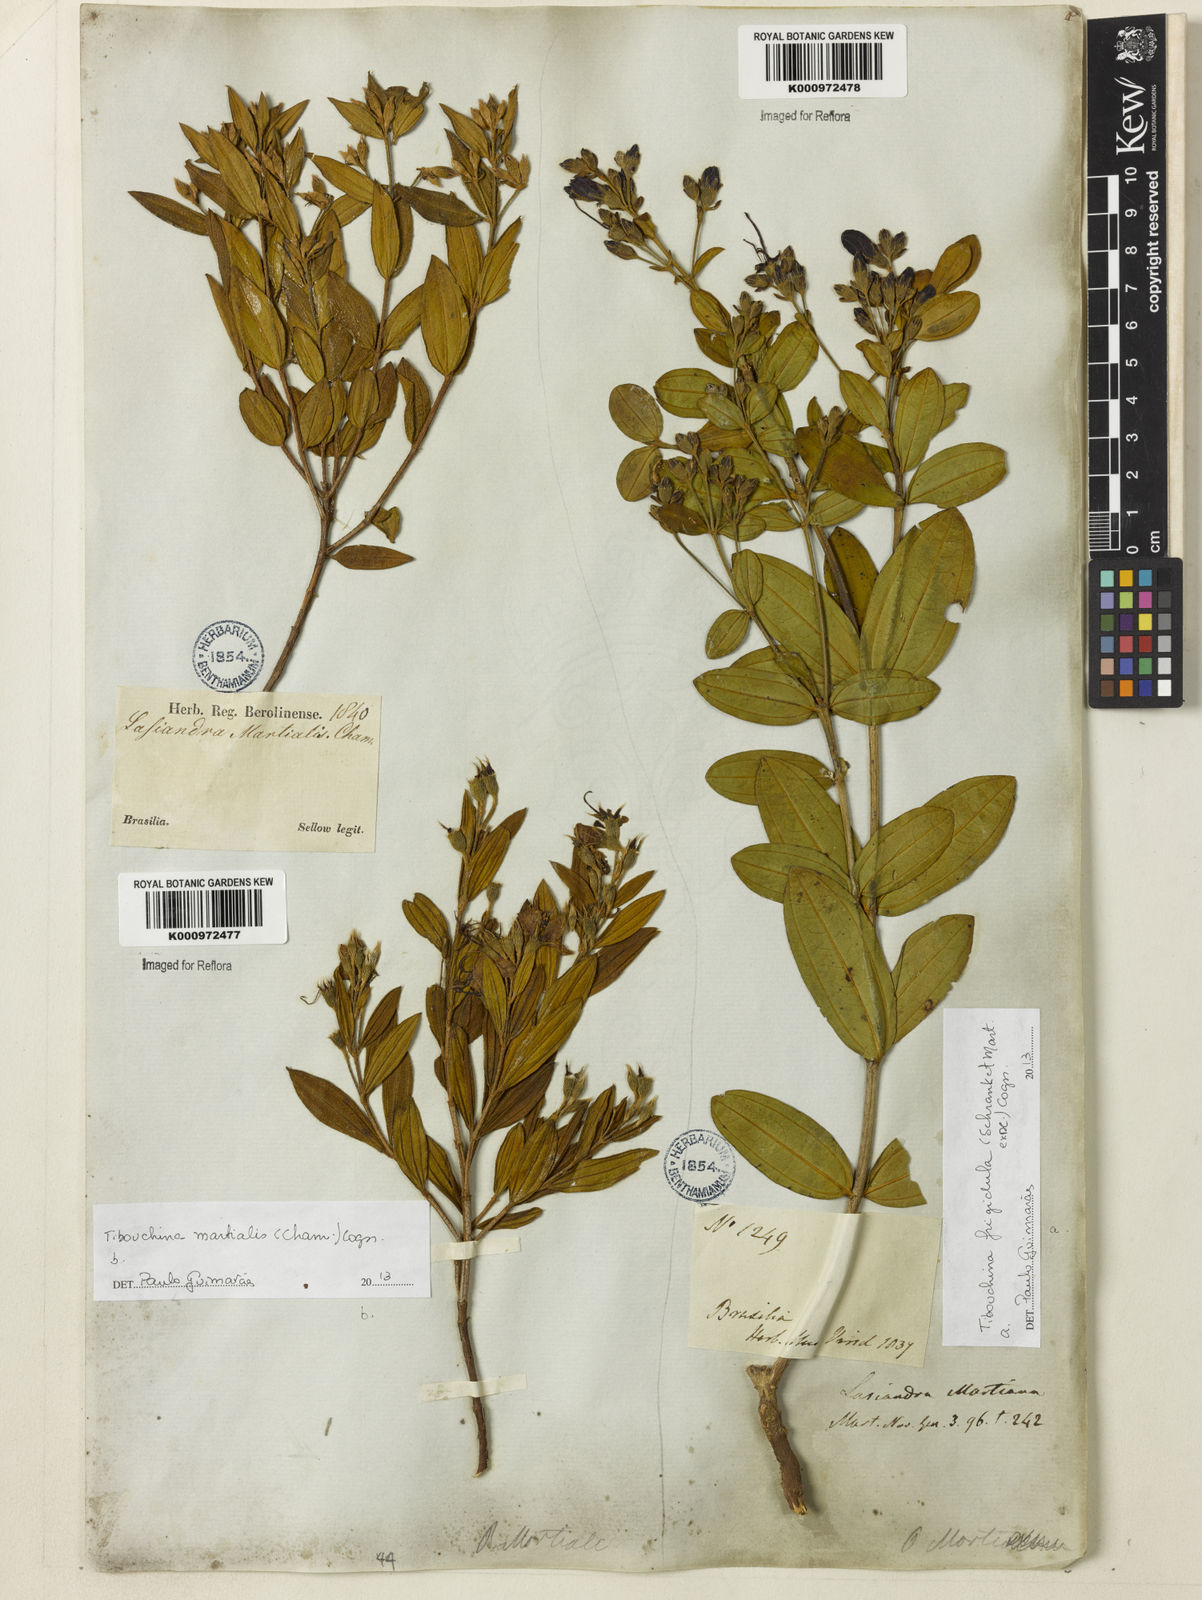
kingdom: Plantae
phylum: Tracheophyta
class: Magnoliopsida
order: Myrtales
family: Melastomataceae
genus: Pleroma
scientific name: Pleroma martiusianum
